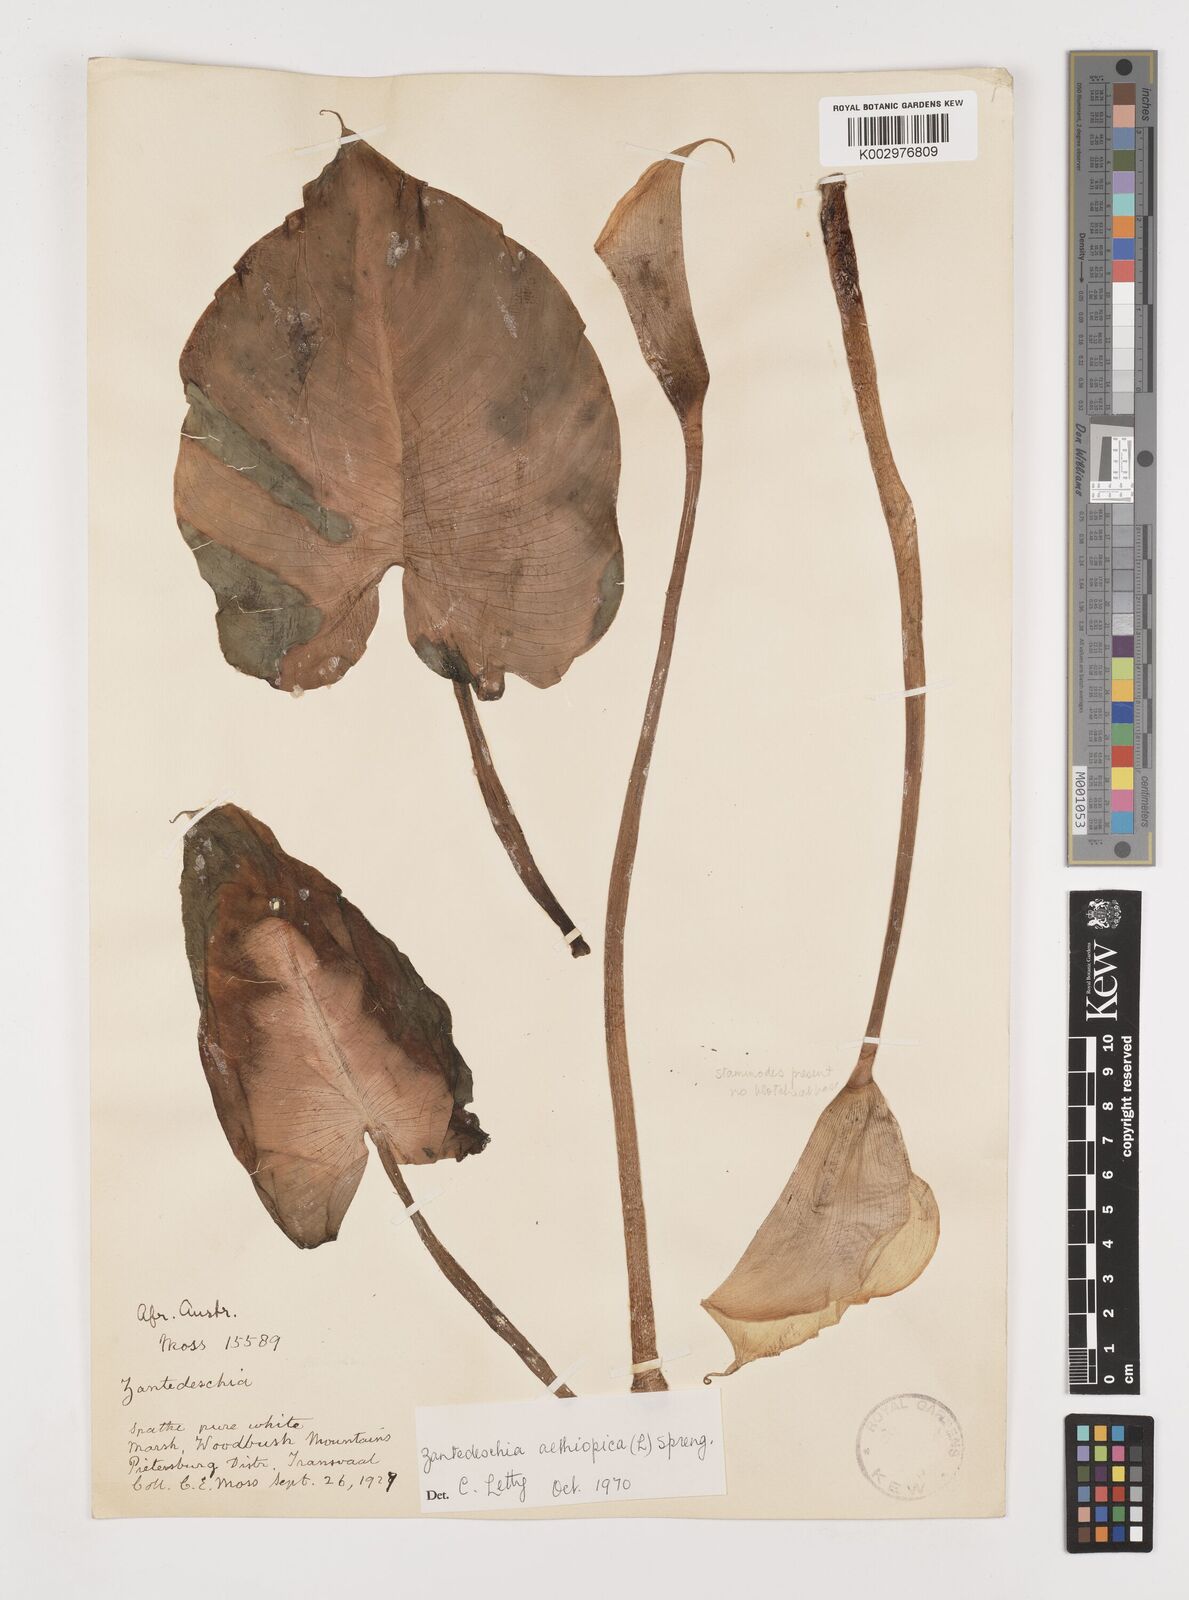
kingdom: Plantae
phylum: Tracheophyta
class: Liliopsida
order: Alismatales
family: Araceae
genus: Zantedeschia
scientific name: Zantedeschia aethiopica
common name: Altar-lily
